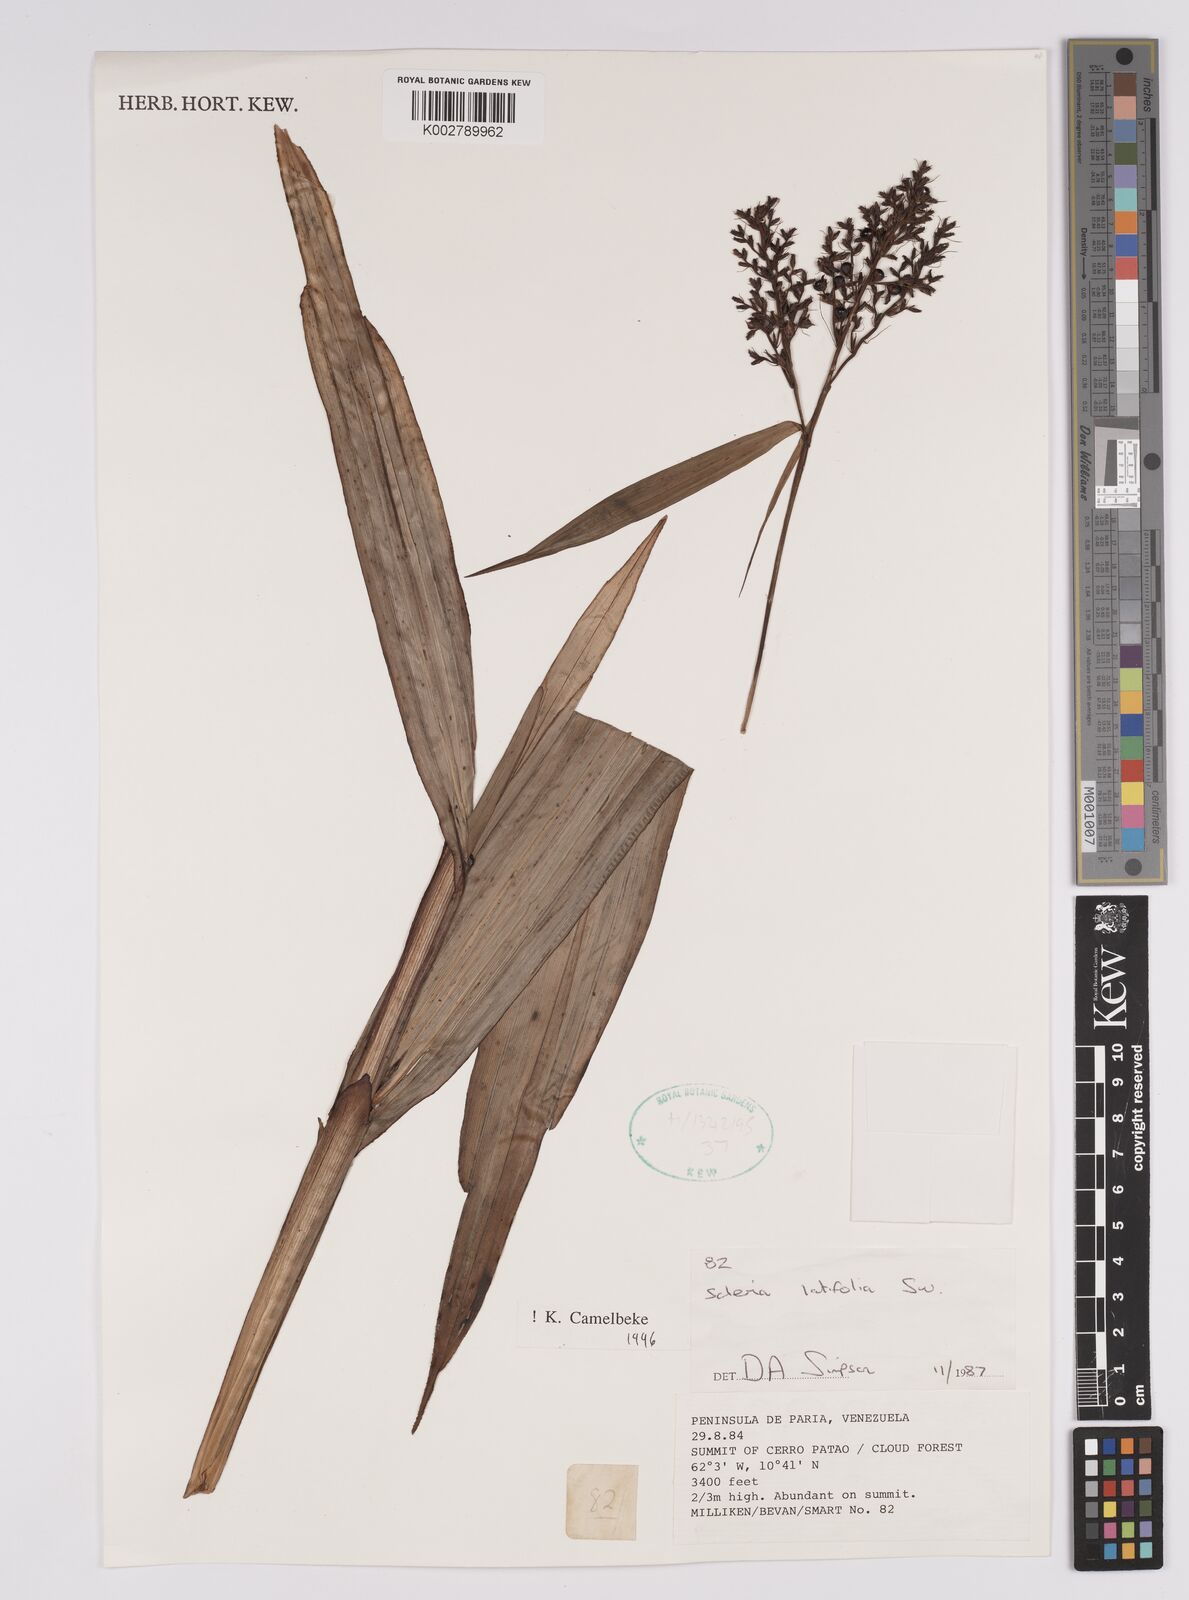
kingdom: Plantae
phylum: Tracheophyta
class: Liliopsida
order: Poales
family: Cyperaceae
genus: Scleria
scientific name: Scleria latifolia
